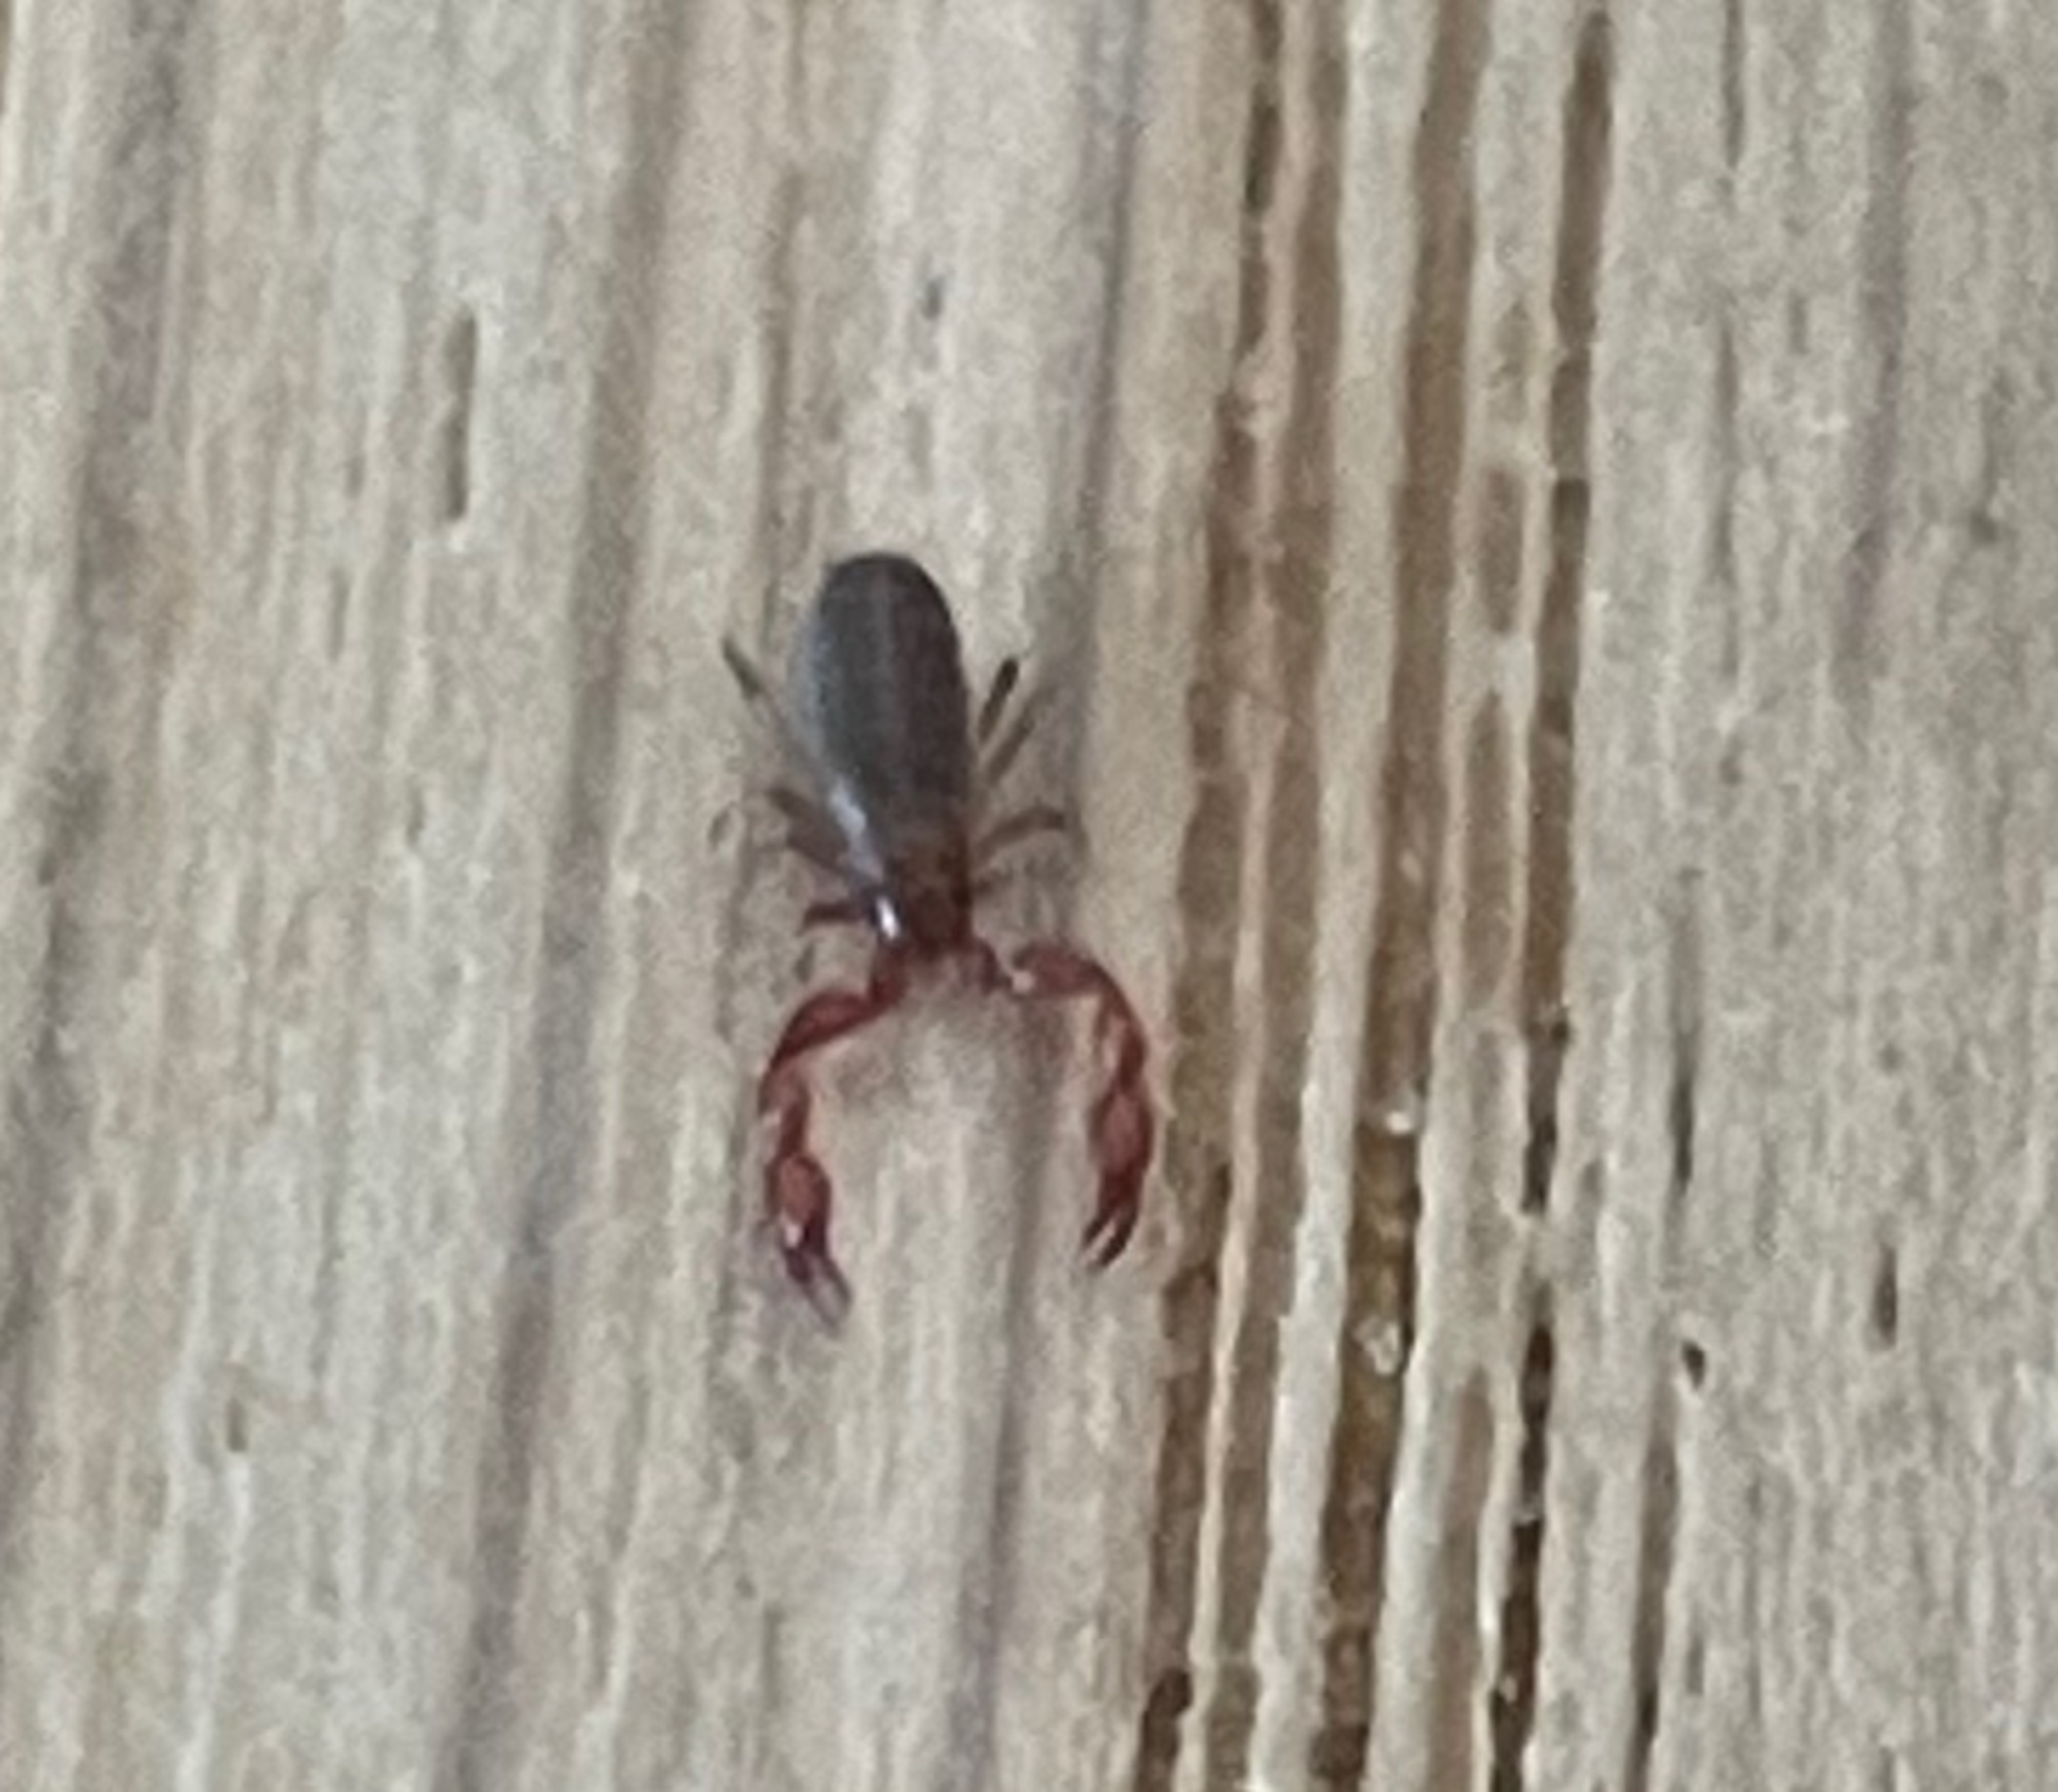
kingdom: Animalia
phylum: Arthropoda
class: Arachnida
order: Pseudoscorpiones
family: Chernetidae
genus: Pselaphochernes
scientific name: Pselaphochernes scorpioides
